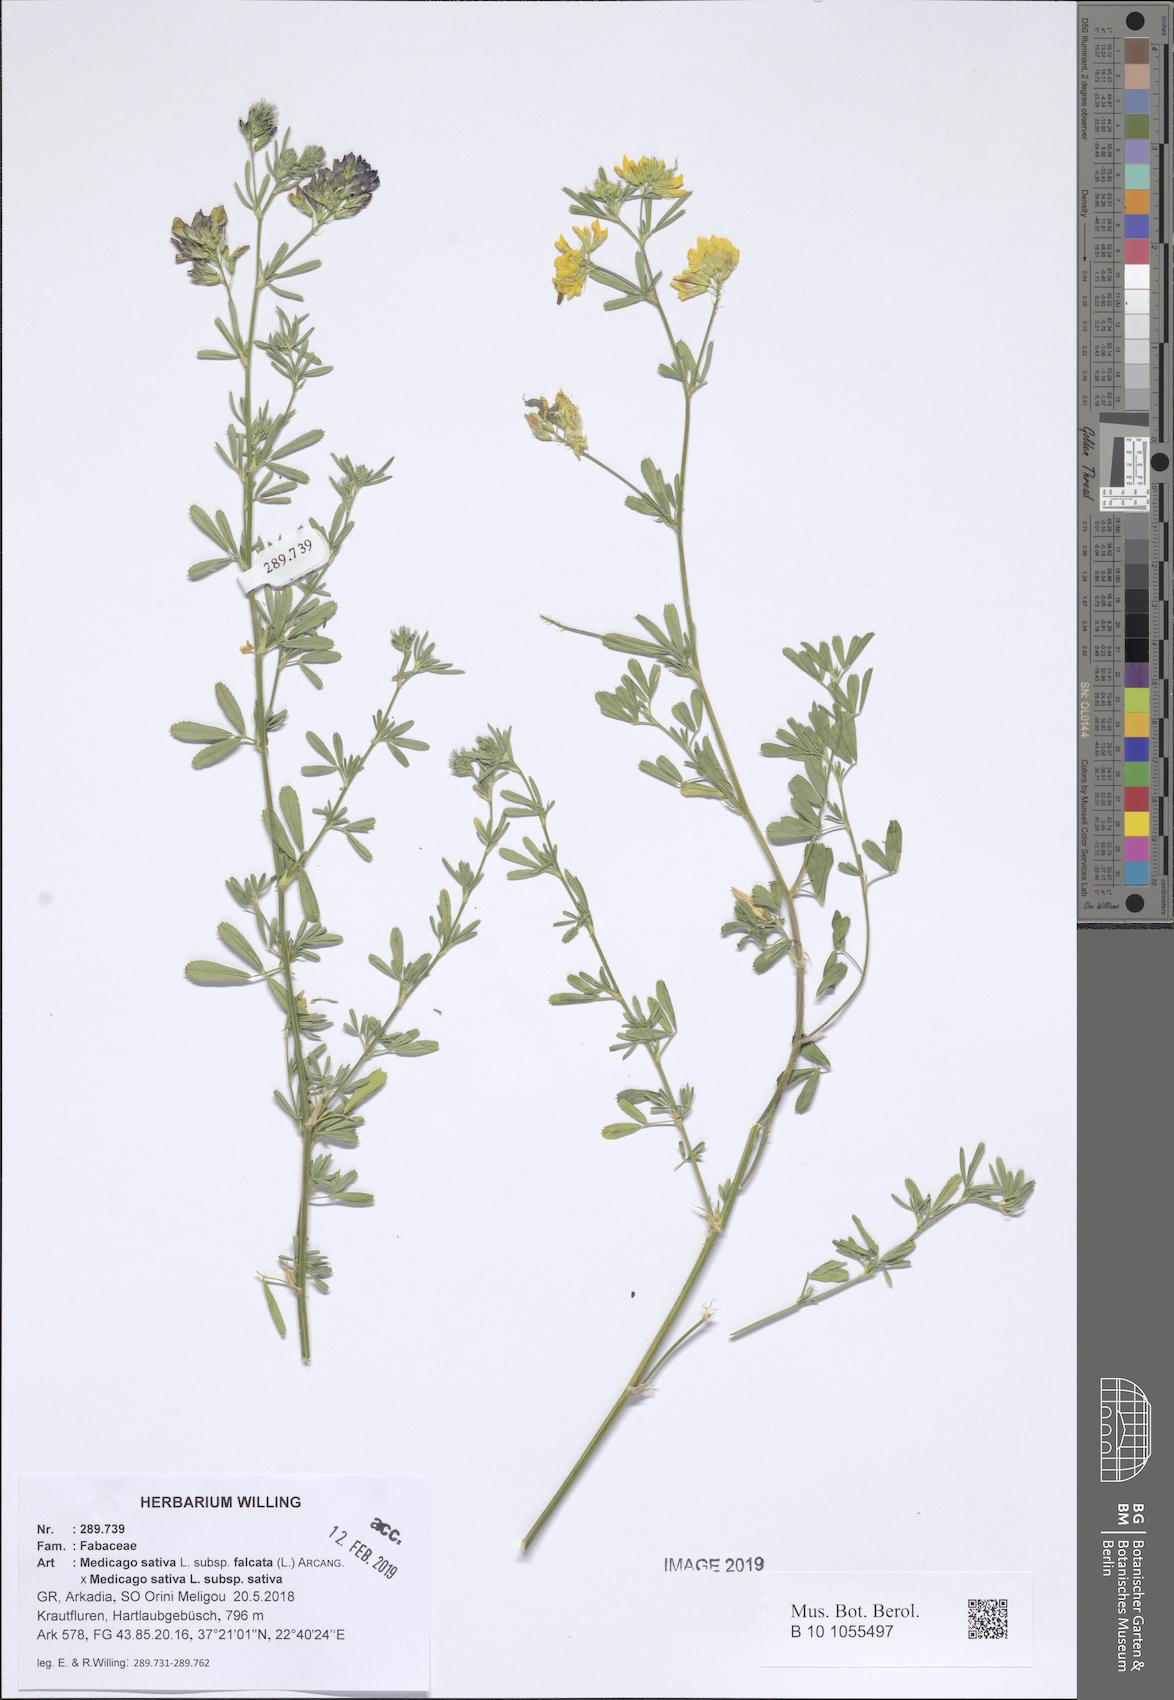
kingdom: Plantae
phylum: Tracheophyta
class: Magnoliopsida
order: Fabales
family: Fabaceae
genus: Medicago
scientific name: Medicago varia
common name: Sand lucerne
